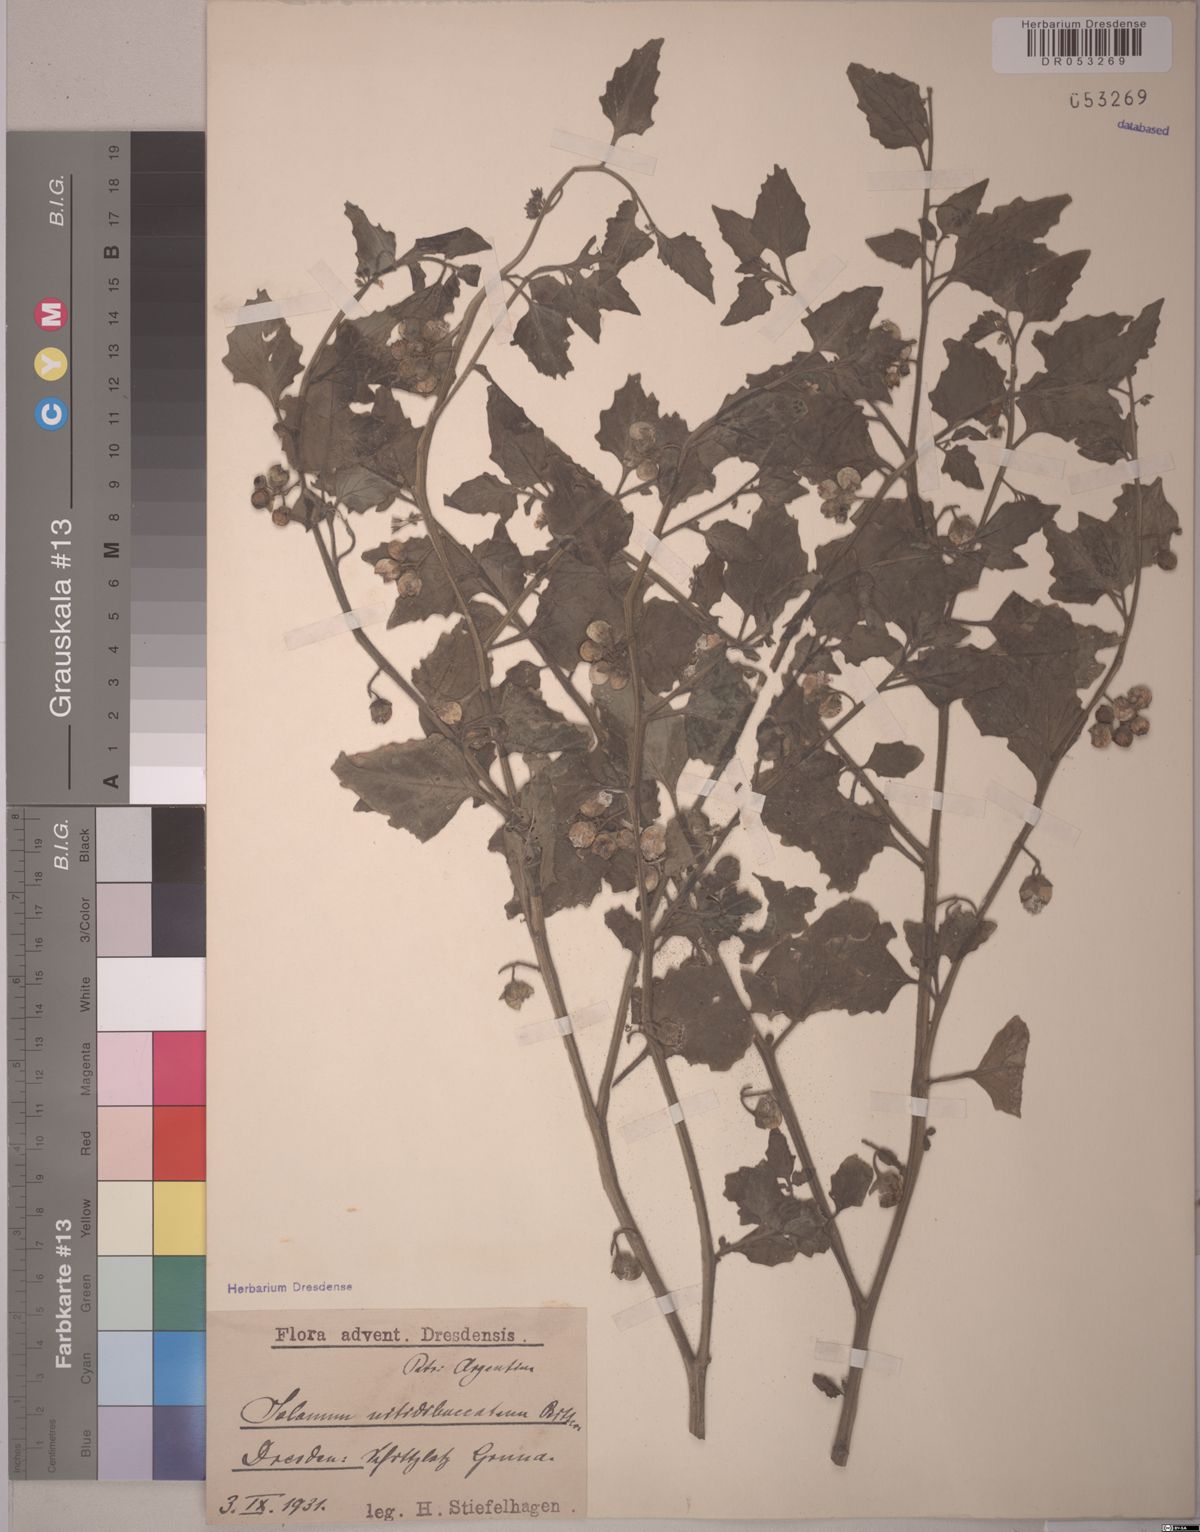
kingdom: Plantae
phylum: Tracheophyta
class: Magnoliopsida
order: Solanales
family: Solanaceae
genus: Solanum
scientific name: Solanum nitidibaccatum
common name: Hairy nightshade
